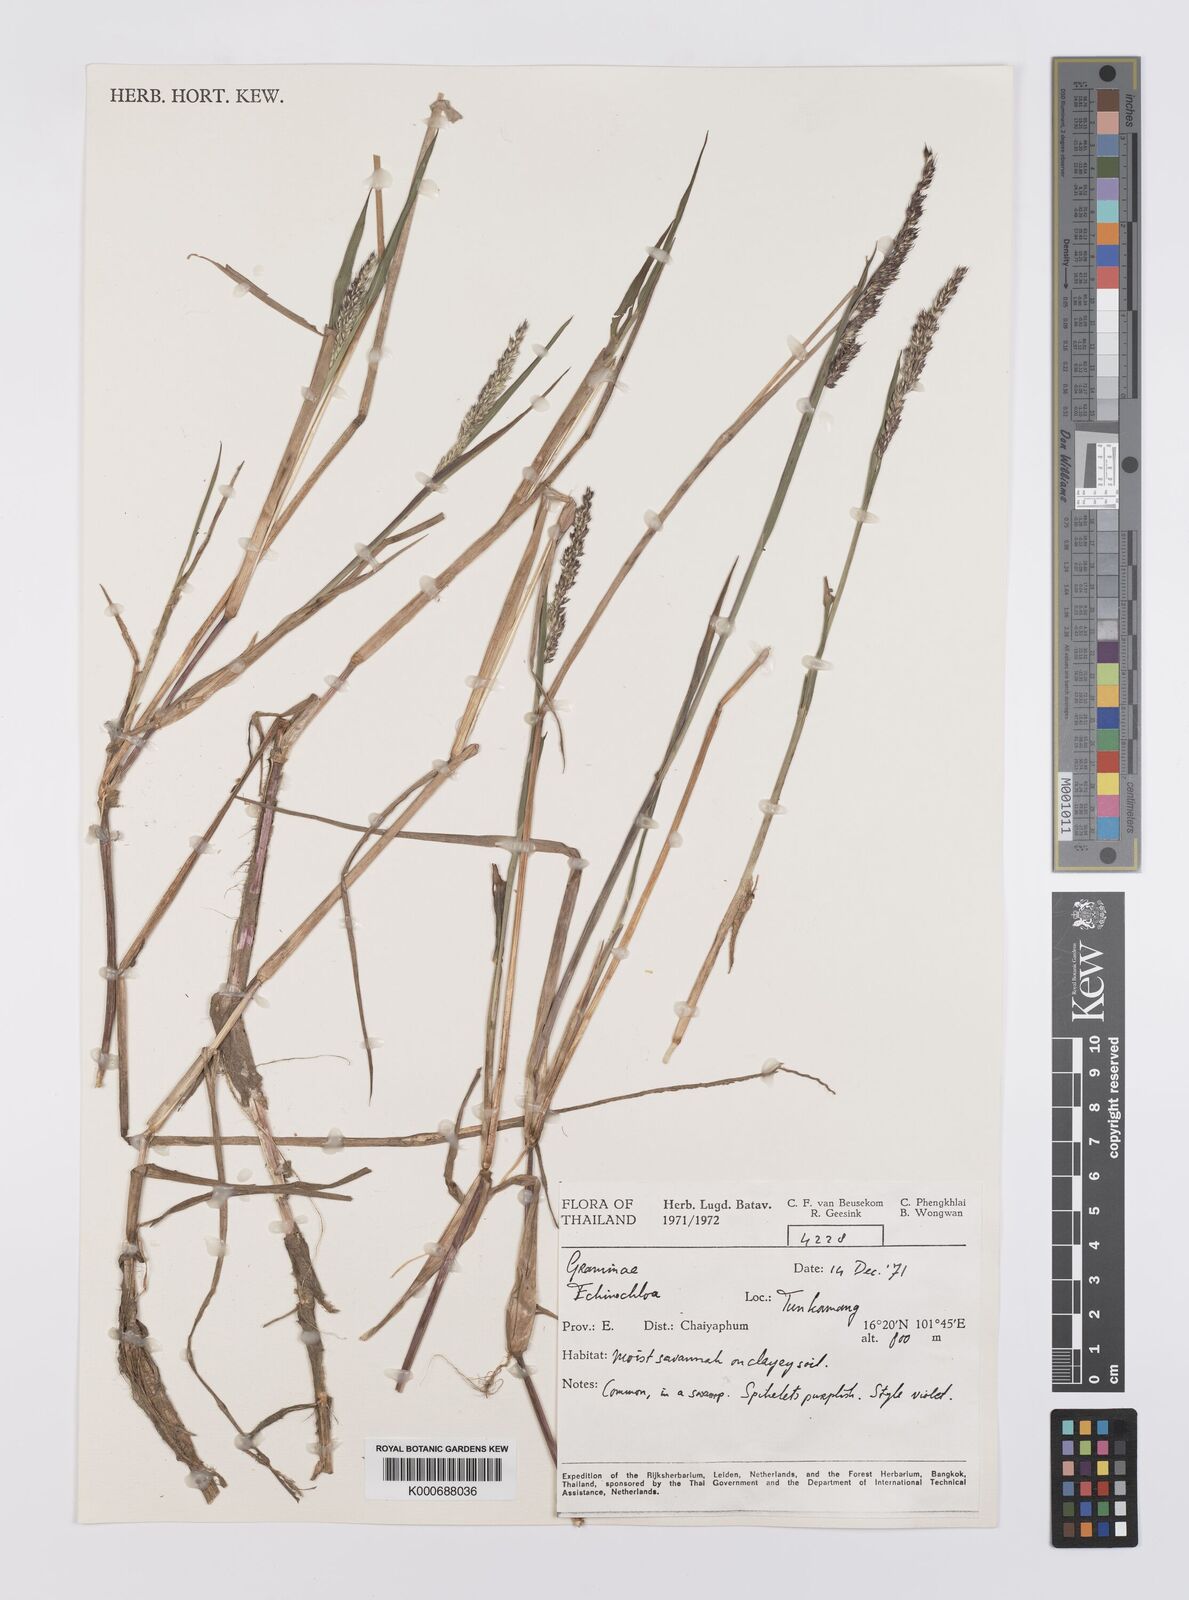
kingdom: Plantae
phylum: Tracheophyta
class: Liliopsida
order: Poales
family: Poaceae
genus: Echinochloa
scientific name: Echinochloa picta
